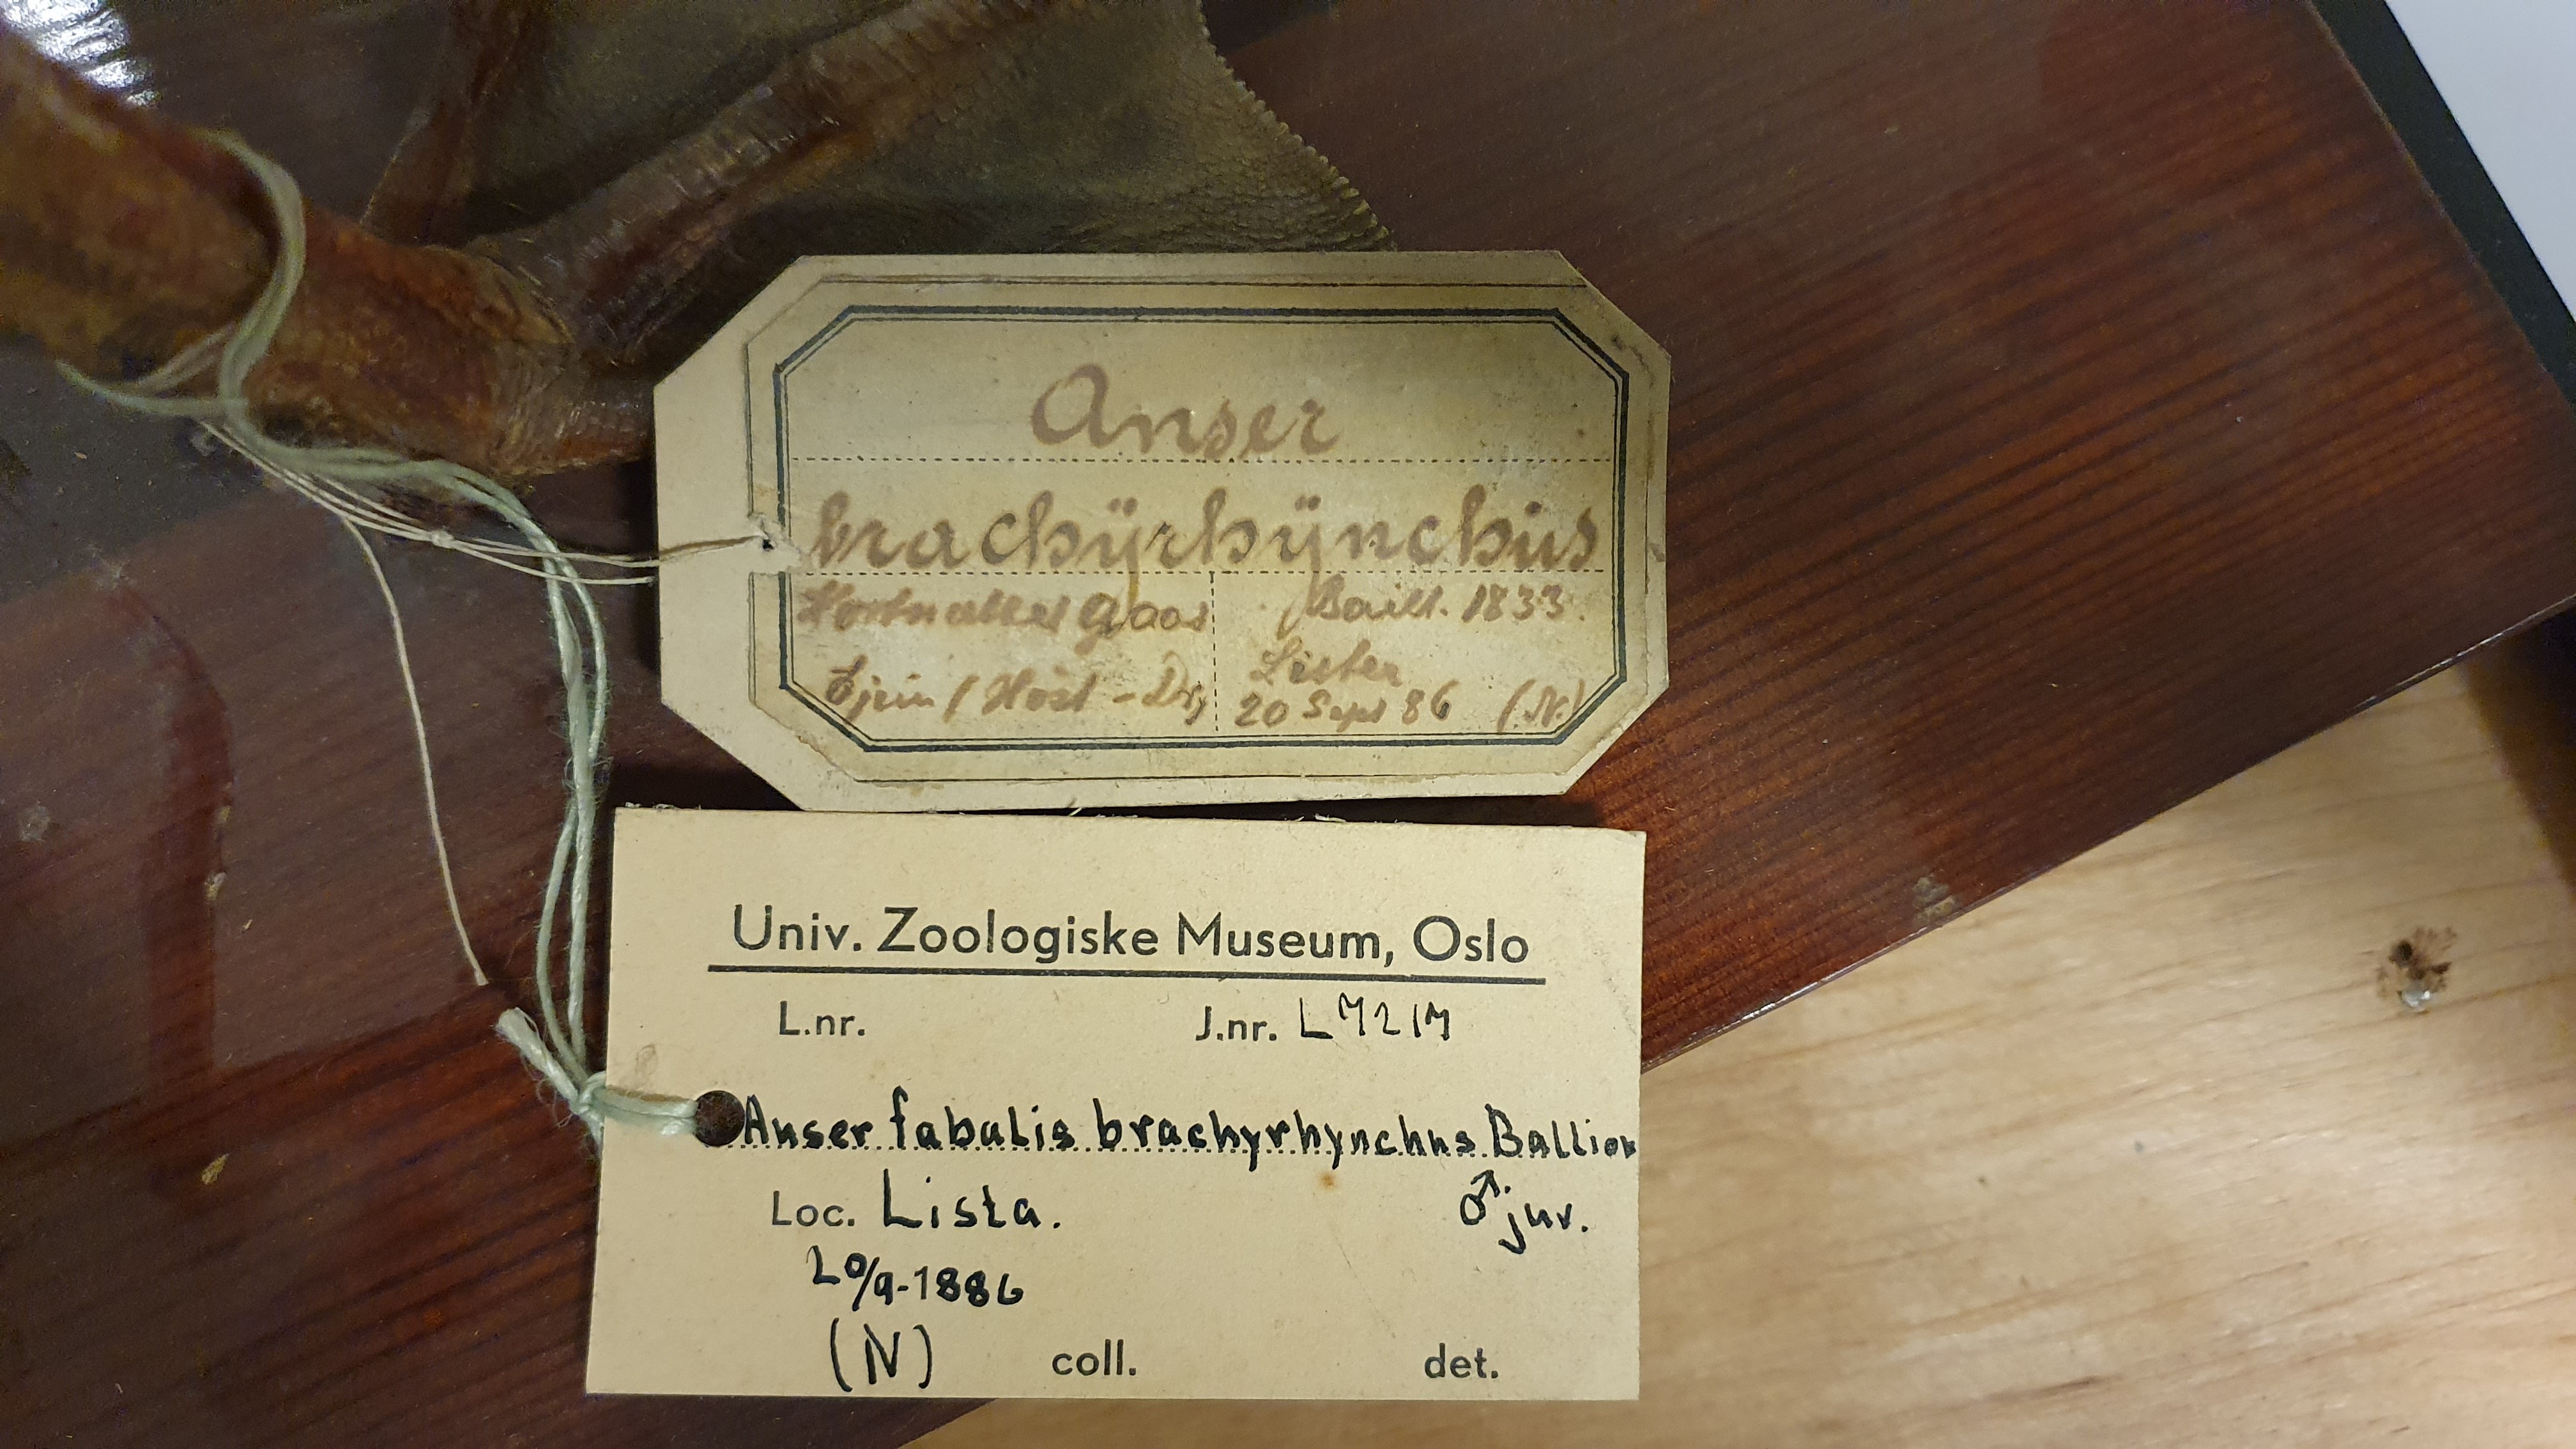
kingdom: Animalia
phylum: Chordata
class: Aves
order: Anseriformes
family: Anatidae
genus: Anser
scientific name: Anser brachyrhynchus
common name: Pink-footed goose
